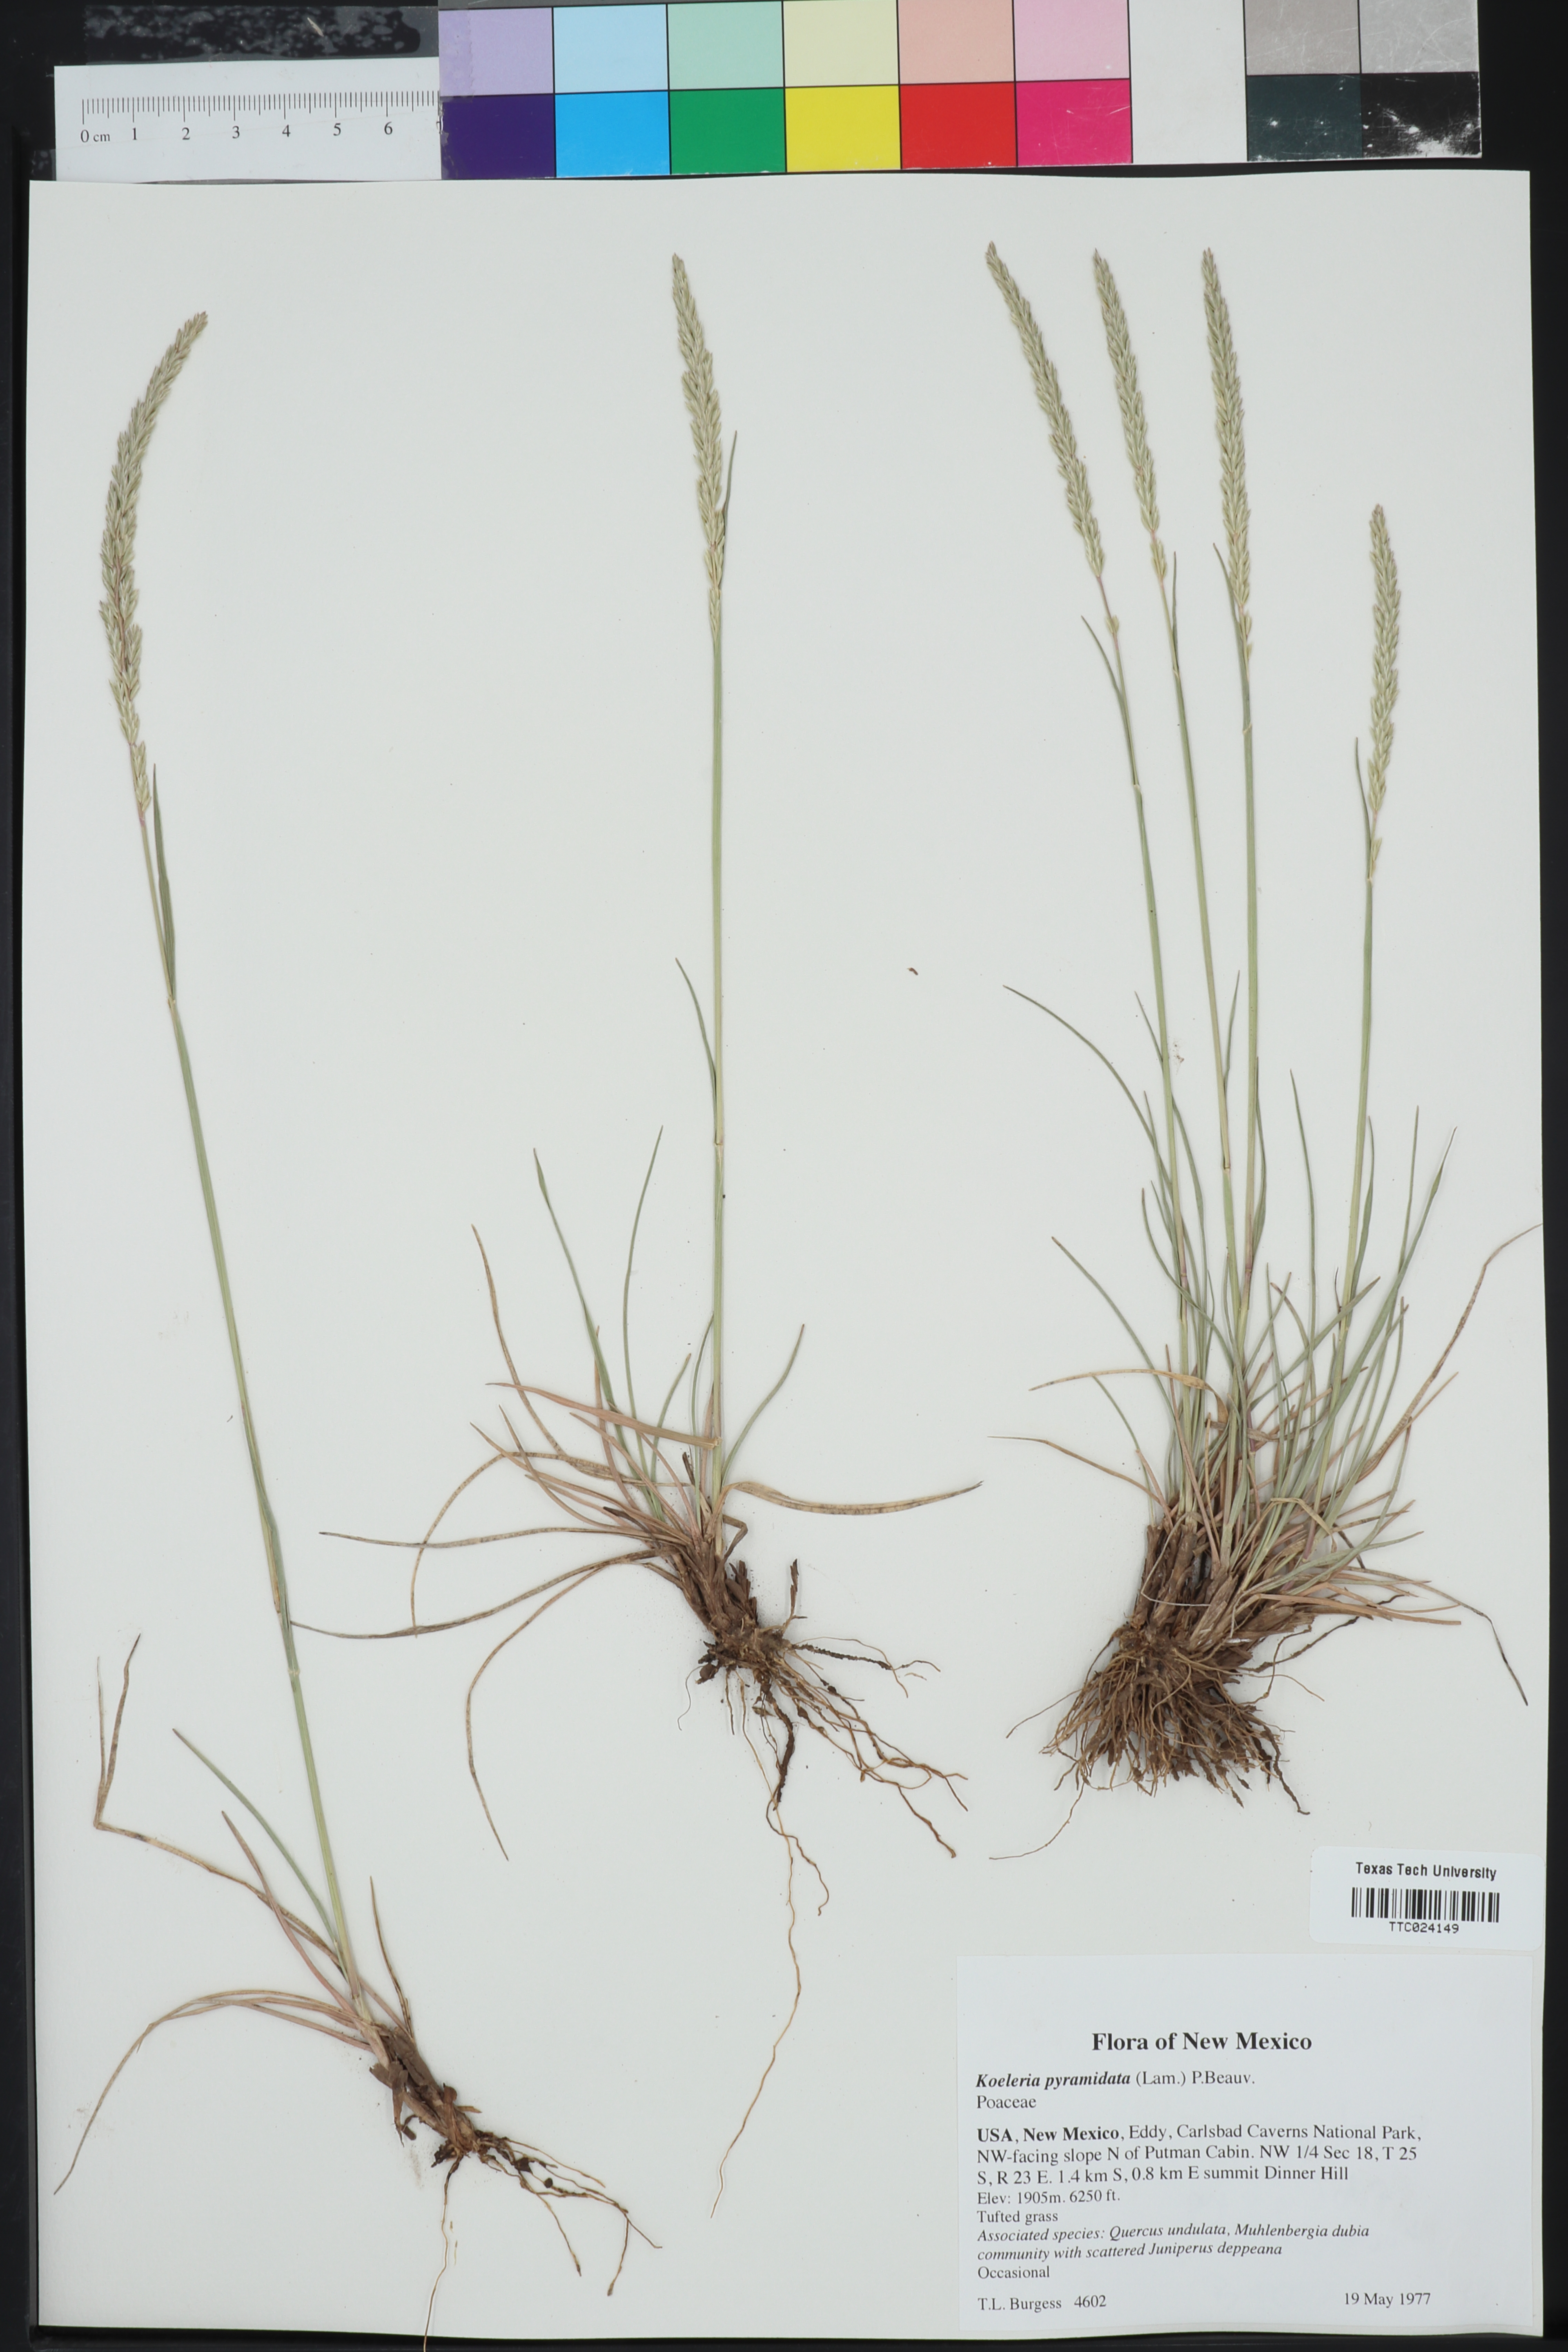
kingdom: Plantae
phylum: Tracheophyta
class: Liliopsida
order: Poales
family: Poaceae
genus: Koeleria
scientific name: Koeleria pyramidata
